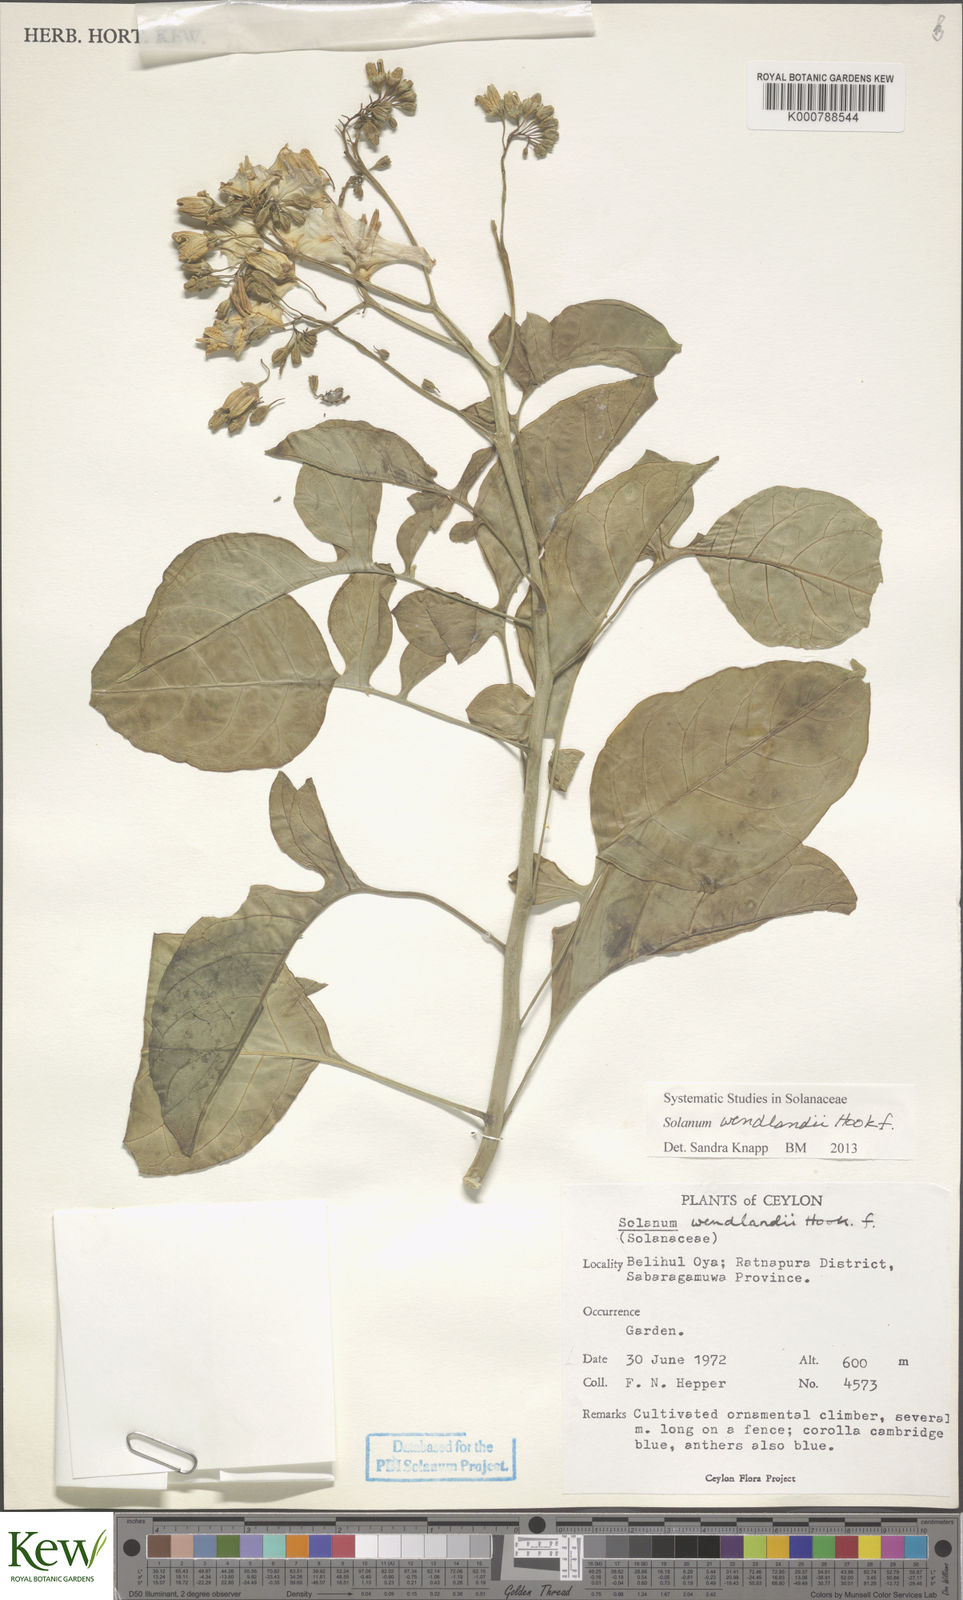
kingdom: Plantae
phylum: Tracheophyta
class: Magnoliopsida
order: Solanales
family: Solanaceae
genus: Solanum
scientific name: Solanum wendlandii
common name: Costa rican nightshade
